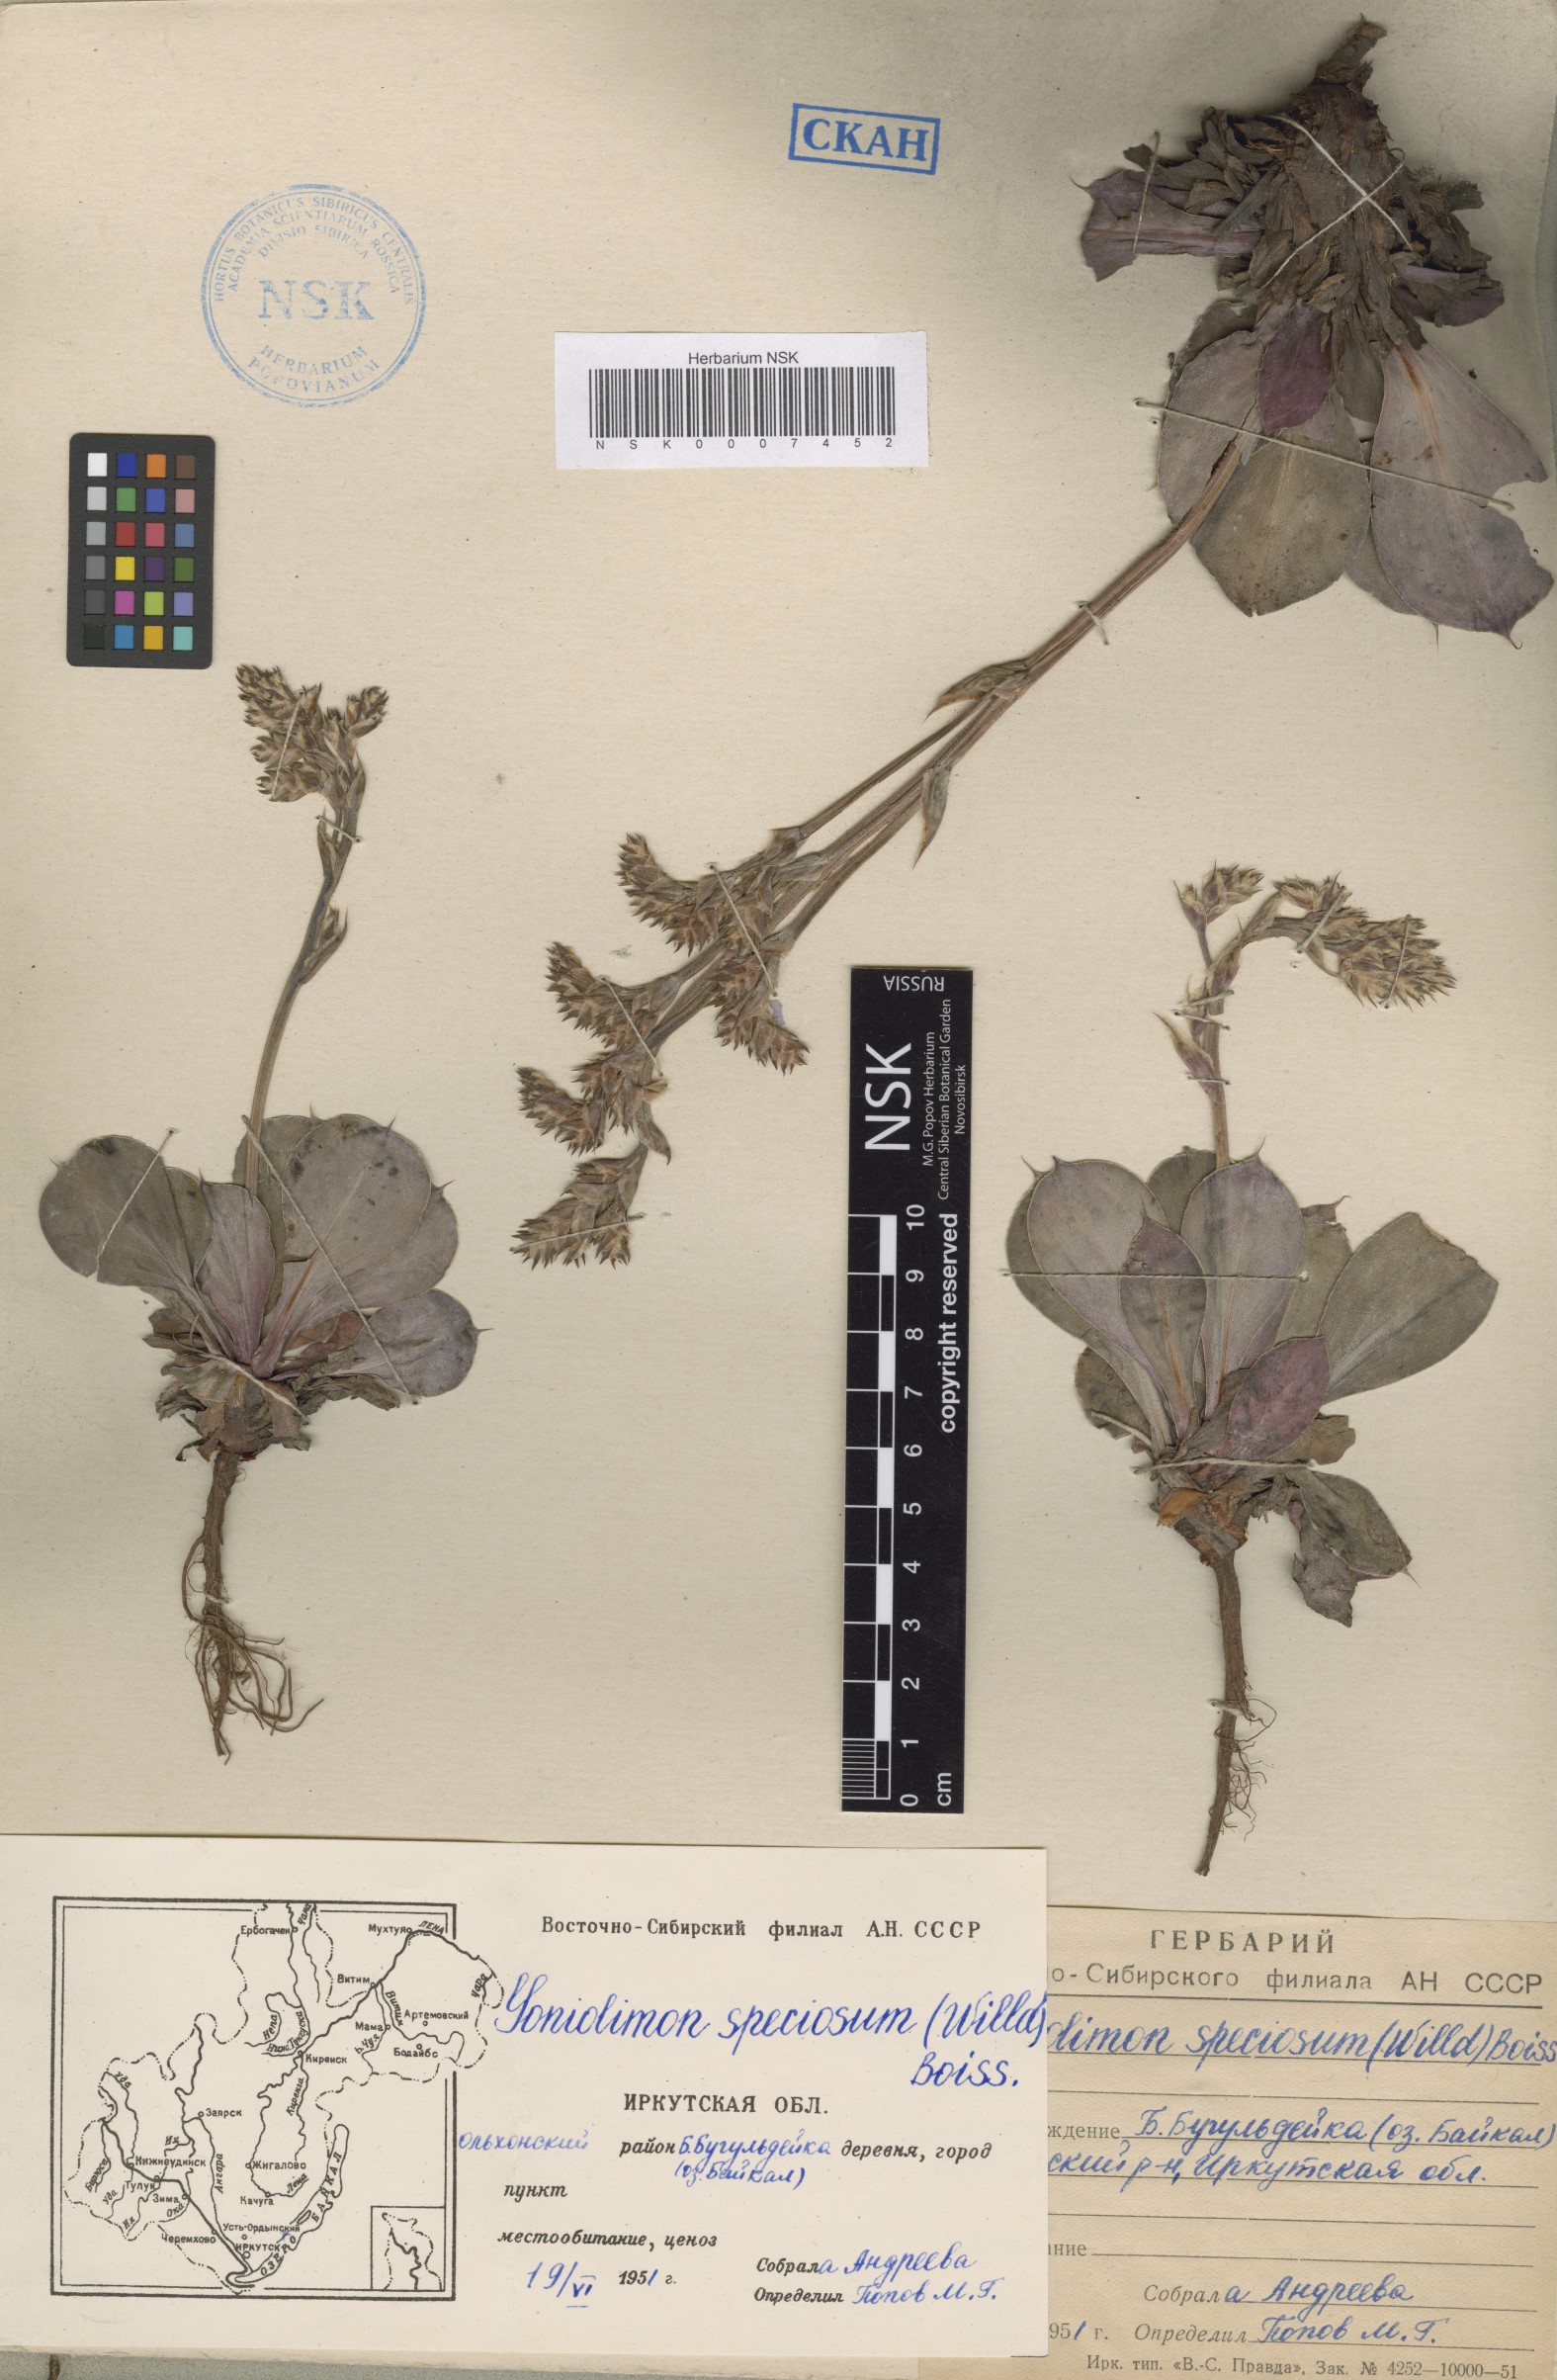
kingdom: Plantae
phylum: Tracheophyta
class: Magnoliopsida
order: Caryophyllales
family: Plumbaginaceae
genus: Goniolimon
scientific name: Goniolimon speciosum
